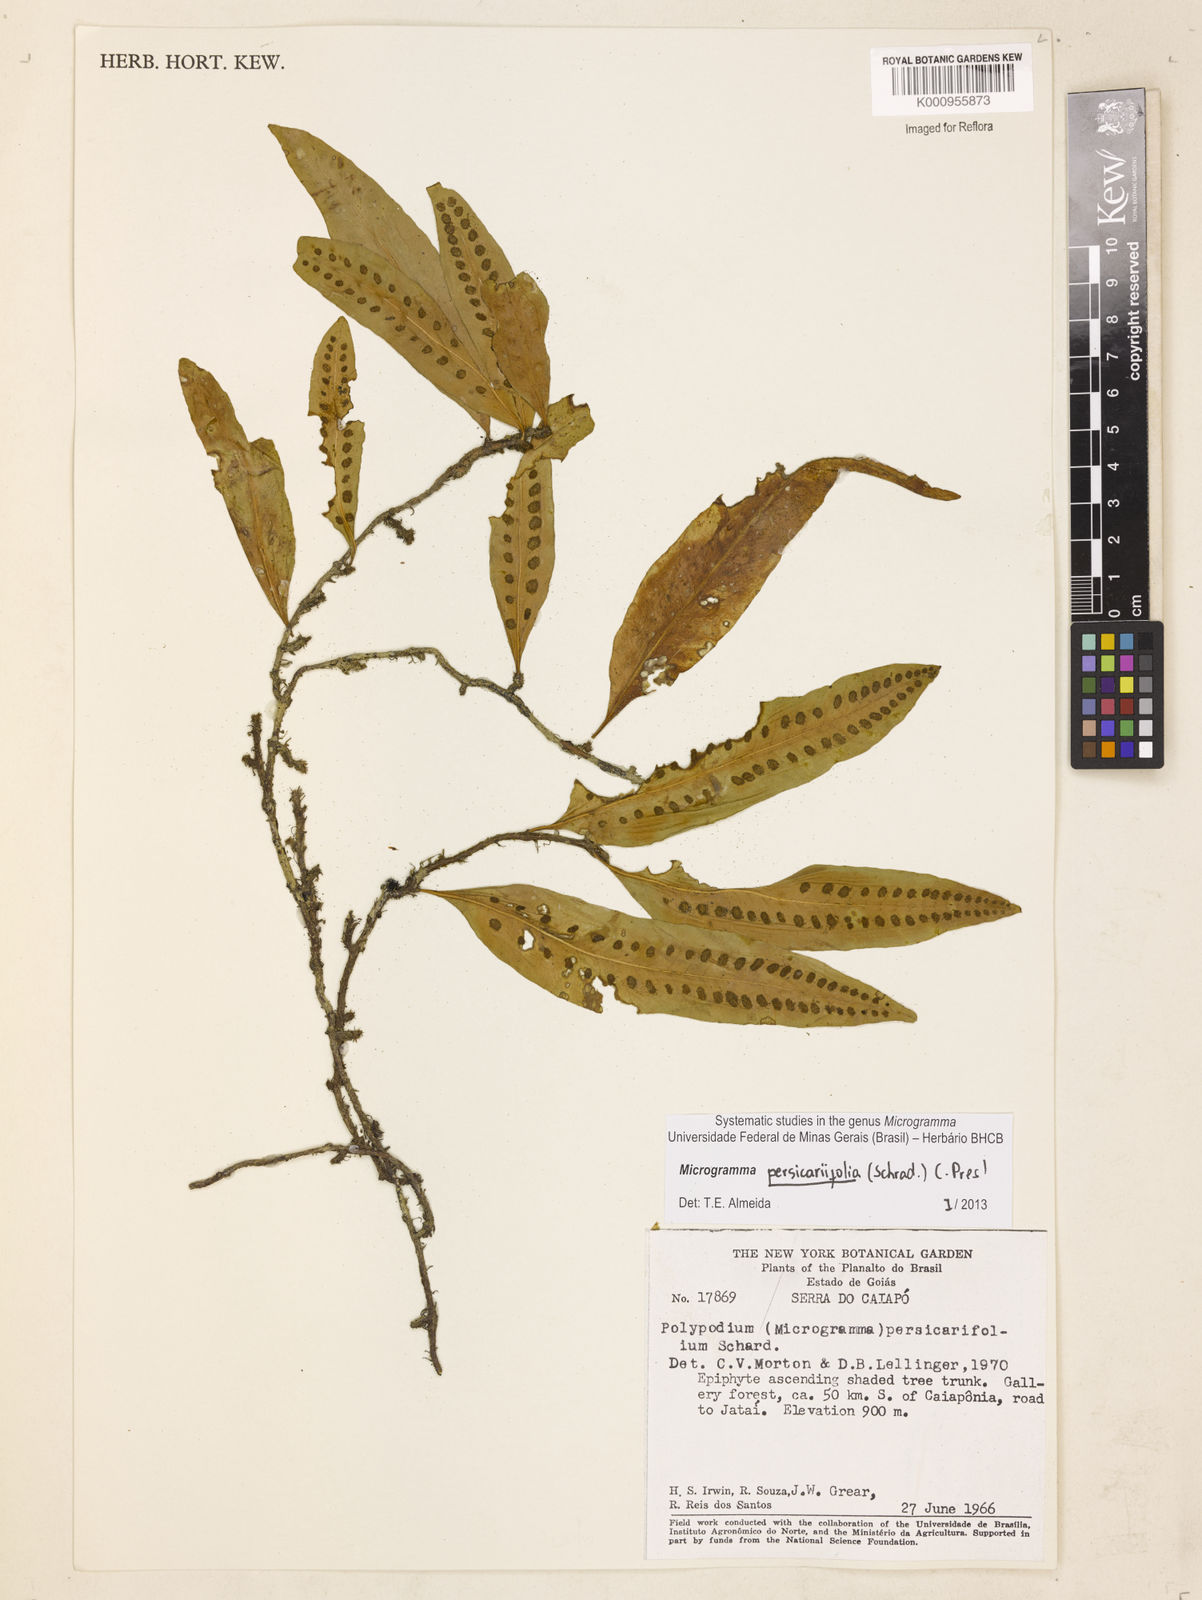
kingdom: Plantae
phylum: Tracheophyta
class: Polypodiopsida
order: Polypodiales
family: Polypodiaceae
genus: Microgramma
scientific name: Microgramma persicariifolia
